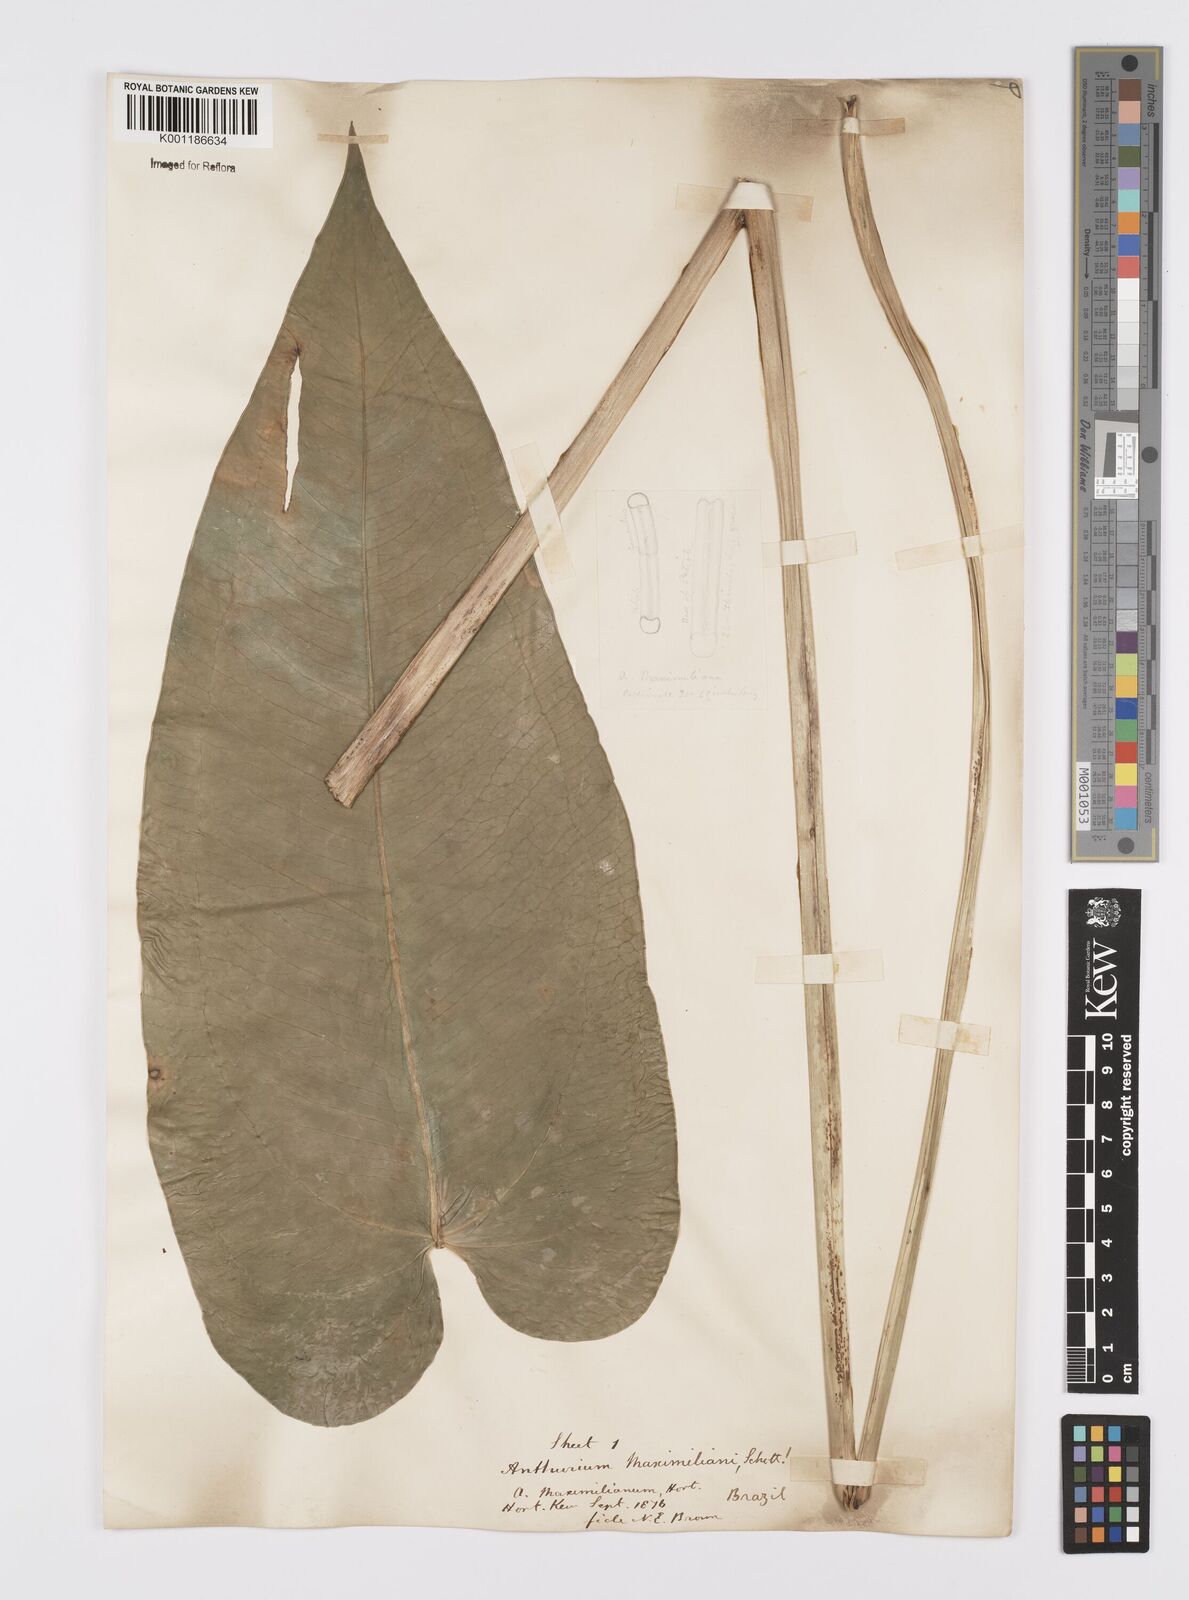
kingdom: Plantae
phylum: Tracheophyta
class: Liliopsida
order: Alismatales
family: Araceae
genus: Anthurium
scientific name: Anthurium augustinum
